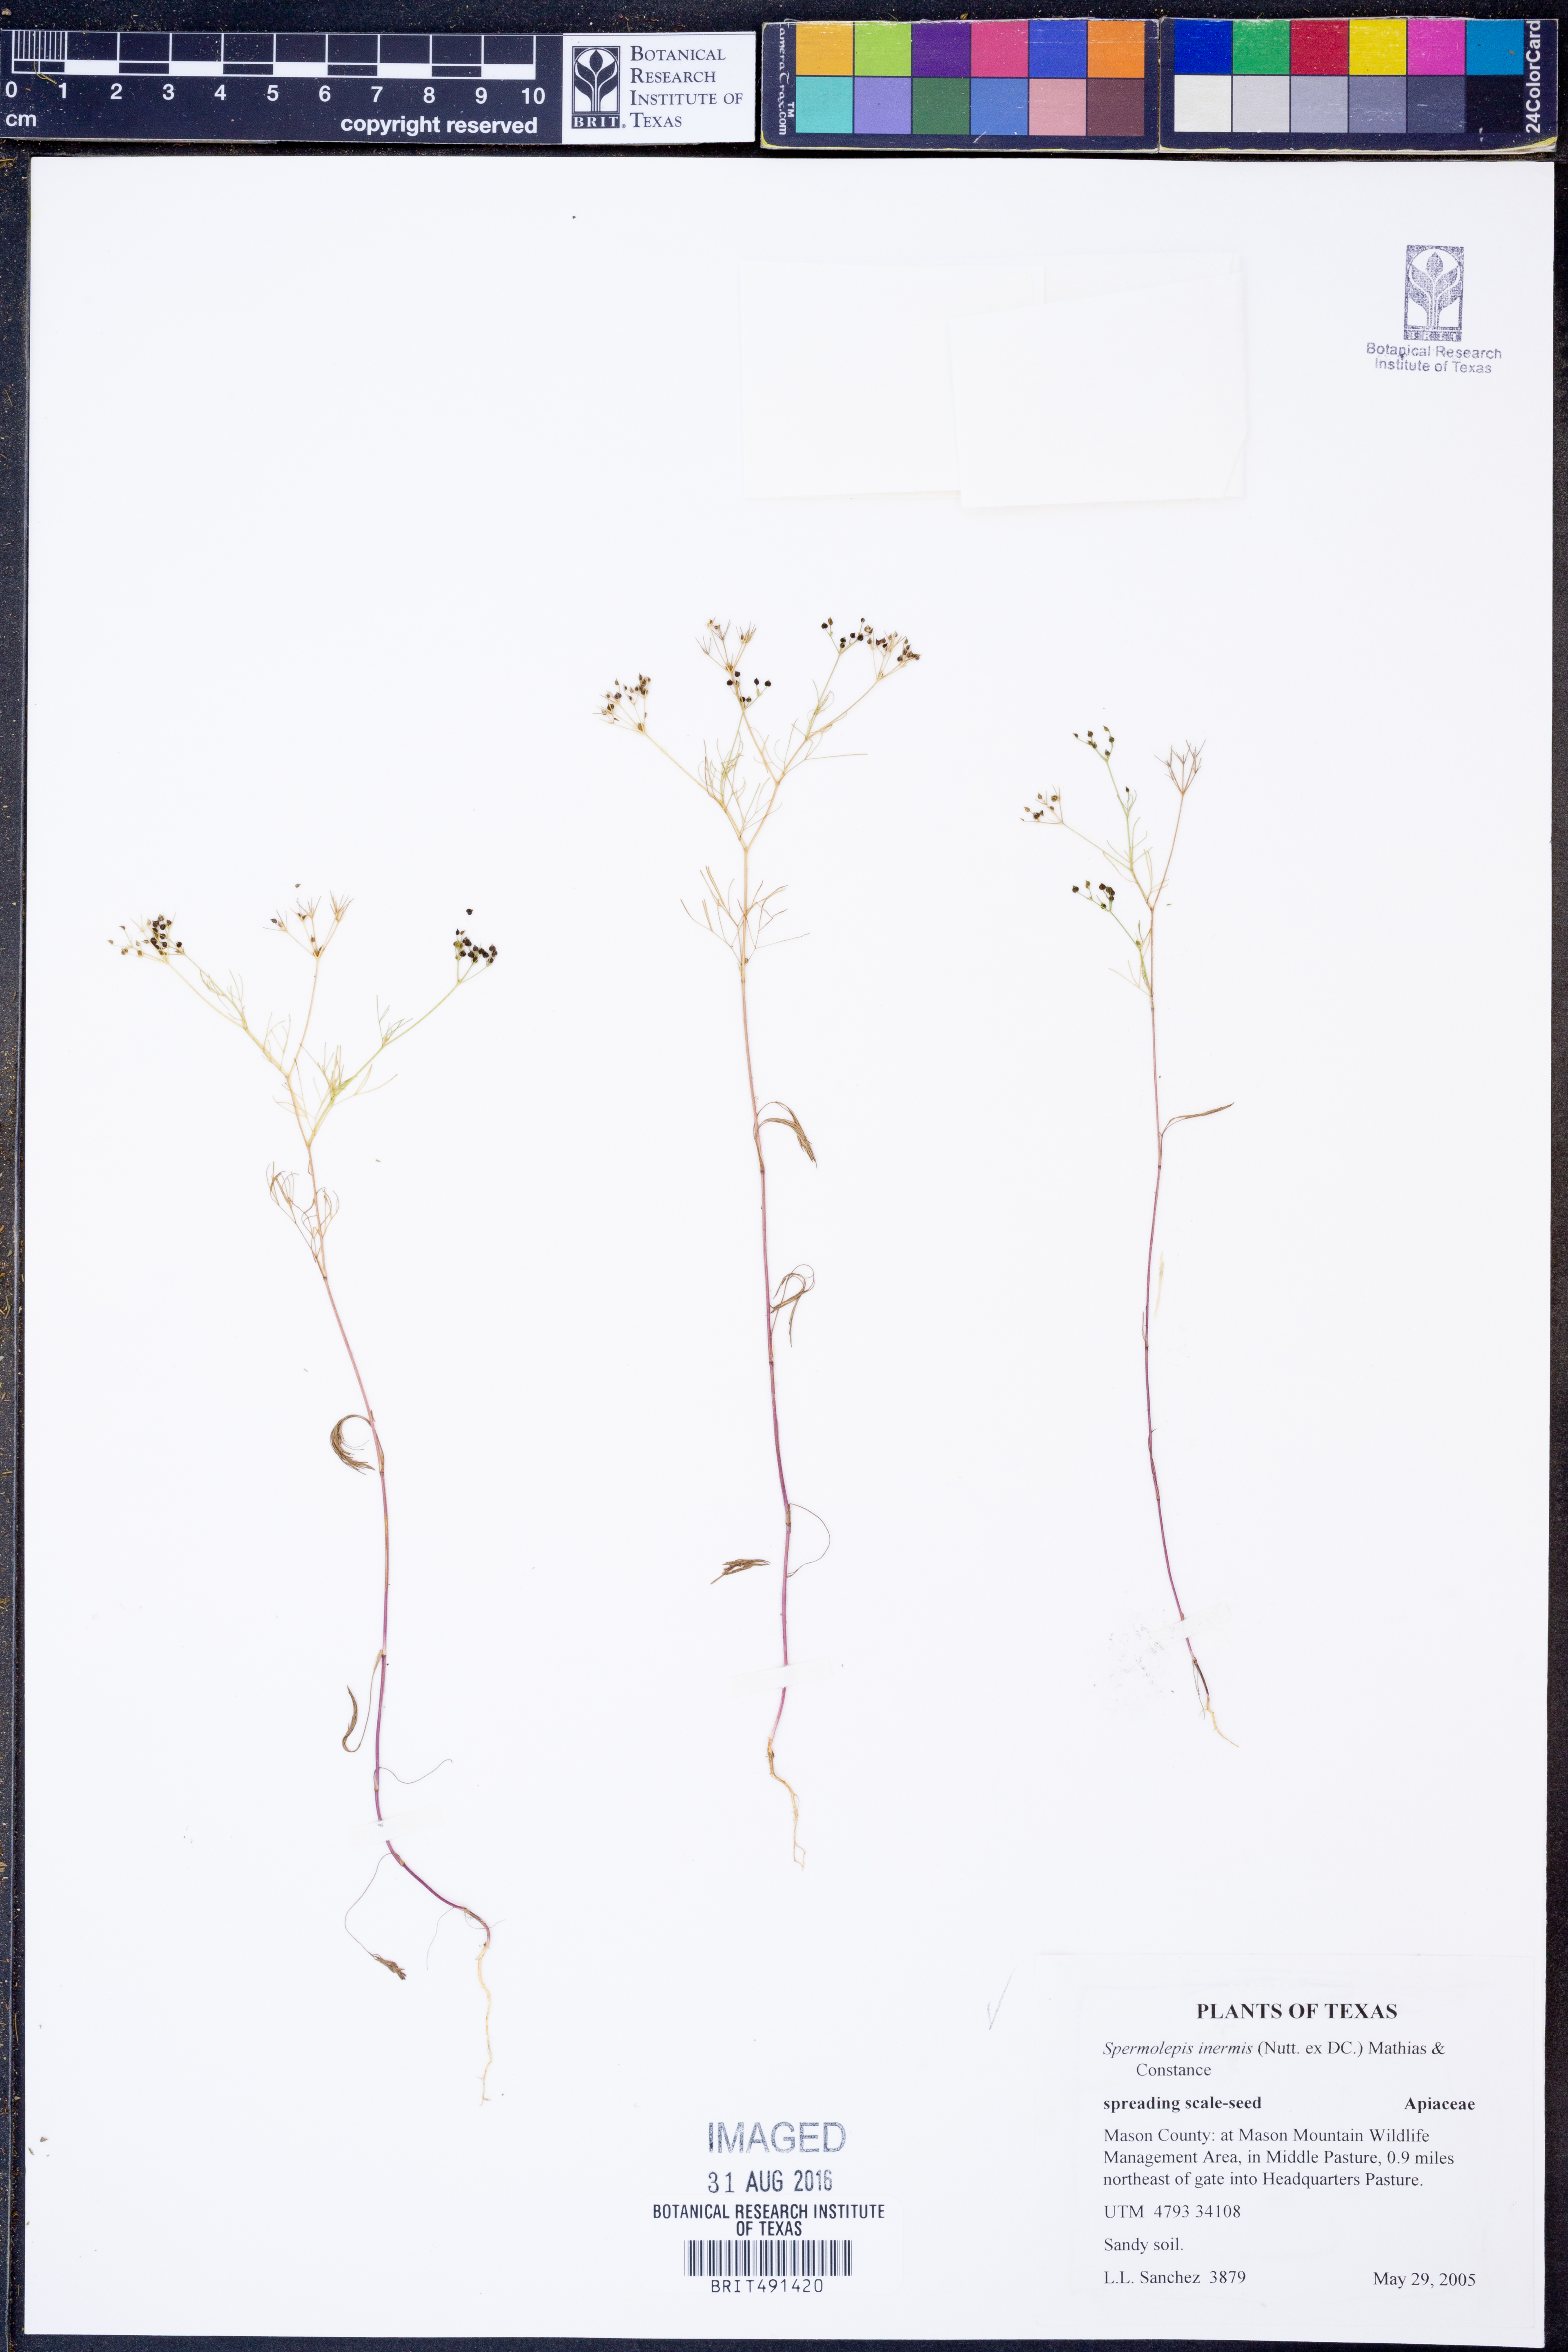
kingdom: Plantae
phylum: Tracheophyta
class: Magnoliopsida
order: Apiales
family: Apiaceae
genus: Spermolepis
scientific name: Spermolepis inermis
